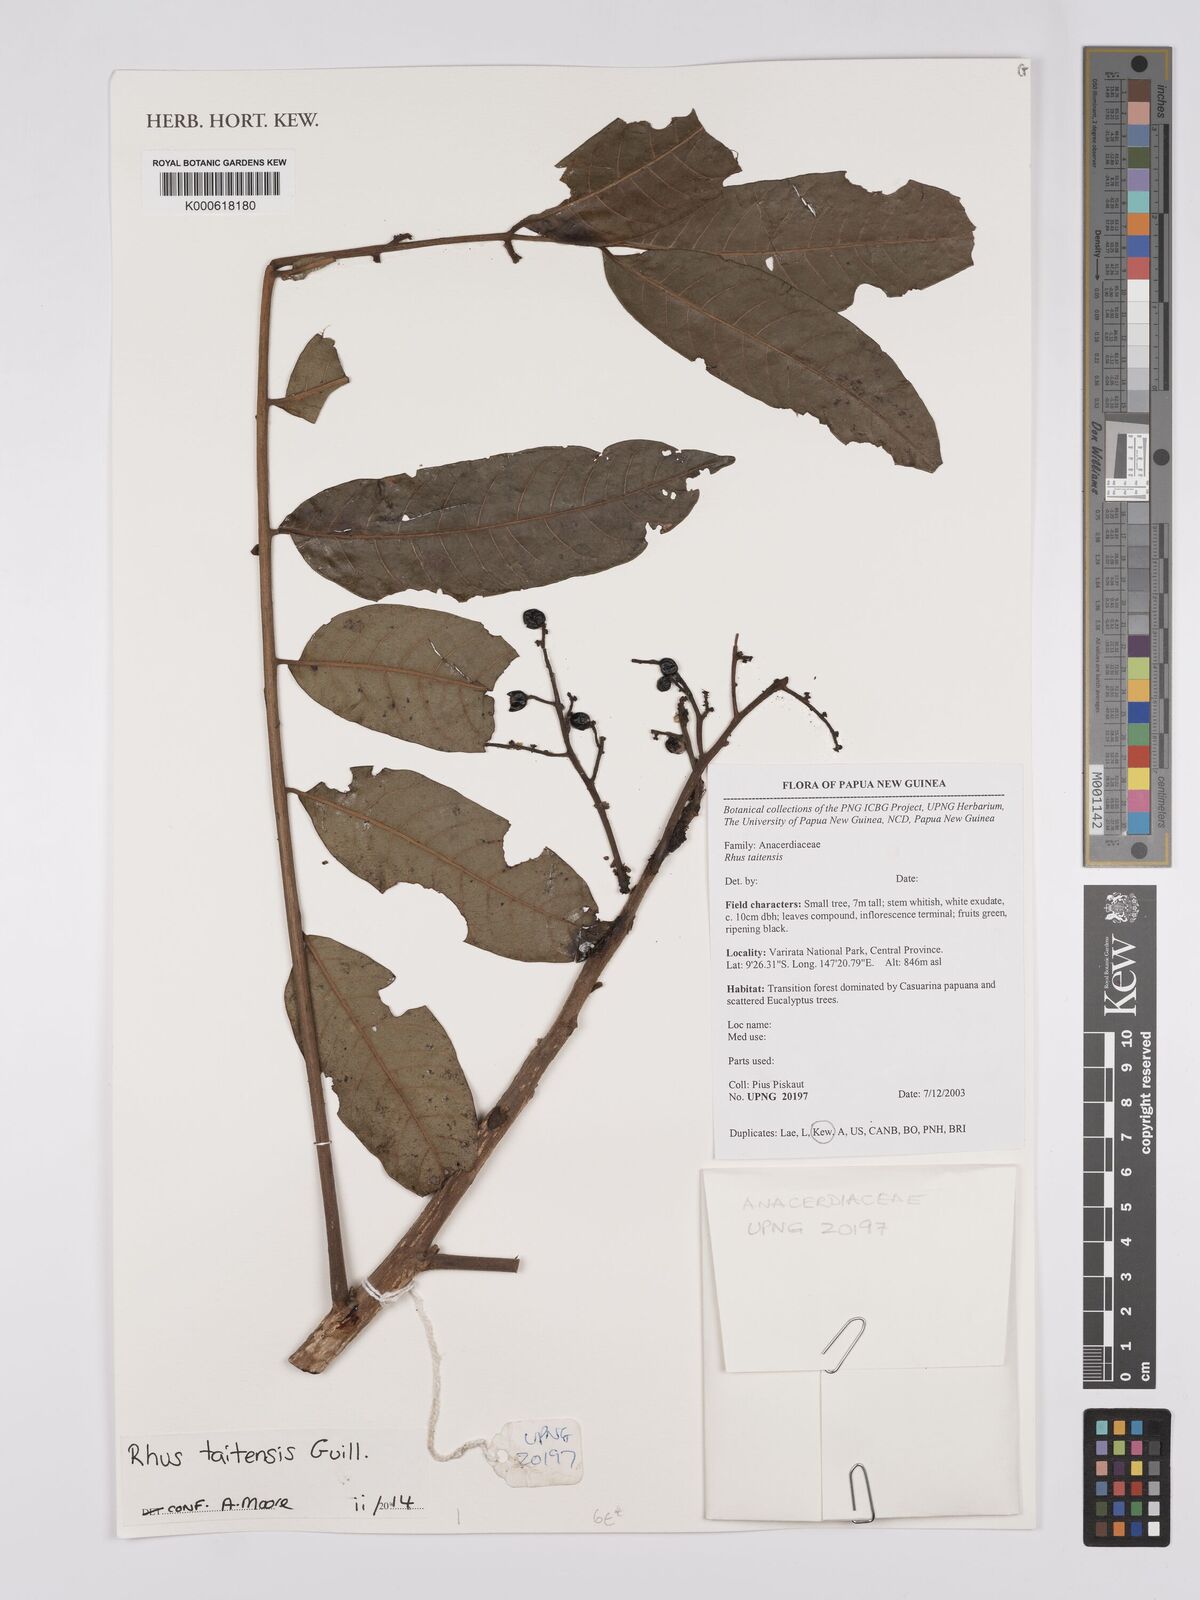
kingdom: Plantae
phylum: Tracheophyta
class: Magnoliopsida
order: Sapindales
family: Anacardiaceae
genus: Melanococca
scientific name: Melanococca tomentosa
